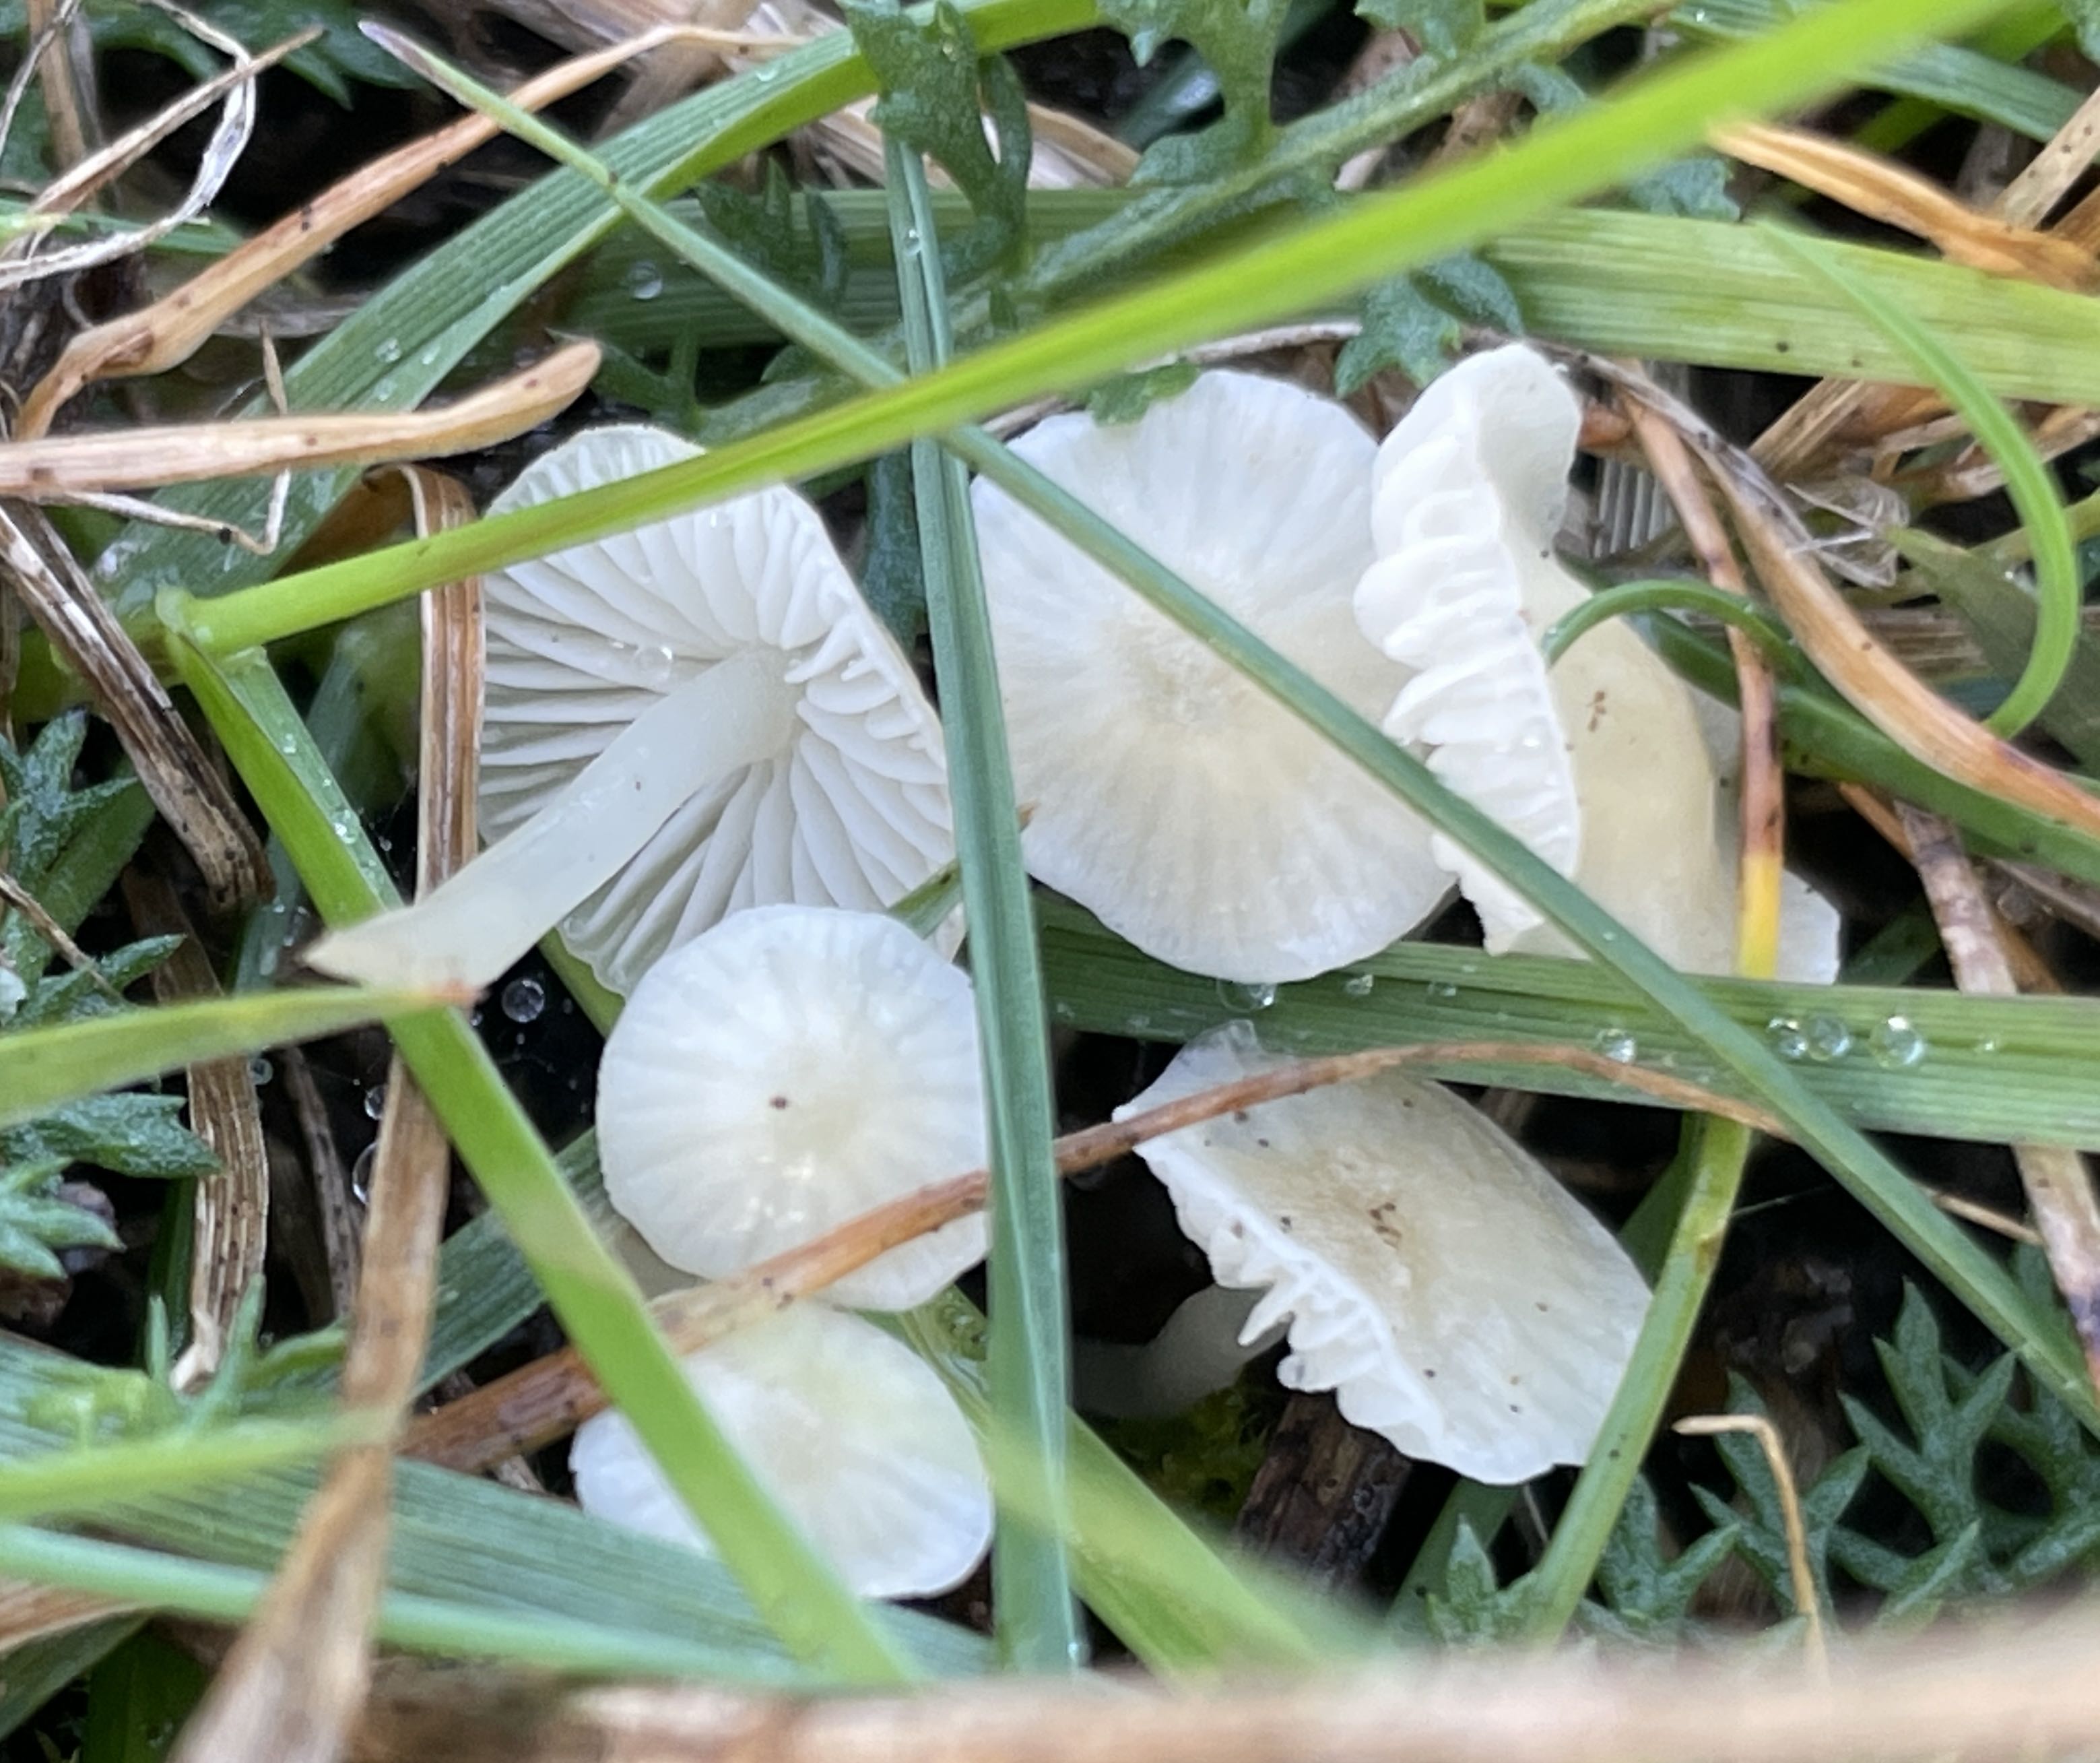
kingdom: Fungi
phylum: Basidiomycota
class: Agaricomycetes
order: Agaricales
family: Mycenaceae
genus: Atheniella
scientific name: Atheniella flavoalba
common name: gulhvid huesvamp
